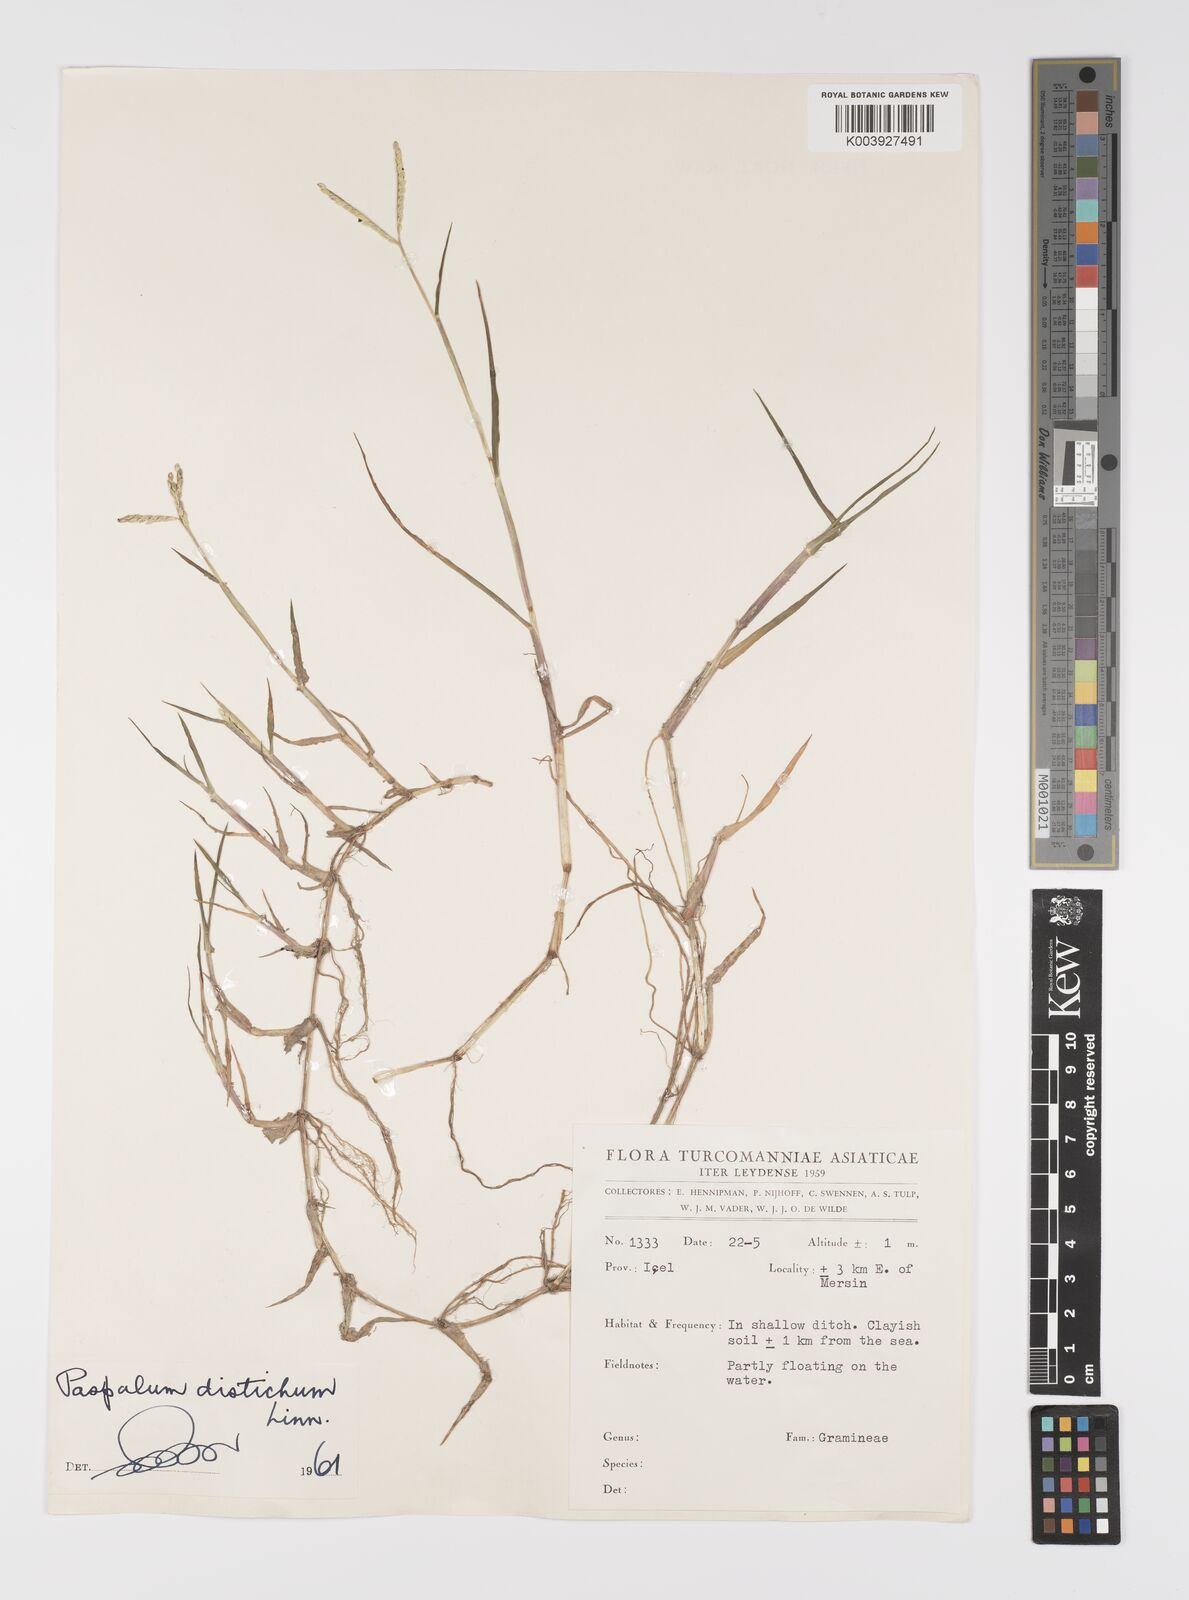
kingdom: Plantae
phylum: Tracheophyta
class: Liliopsida
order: Poales
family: Poaceae
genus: Paspalum
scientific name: Paspalum distichum
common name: Knotgrass
